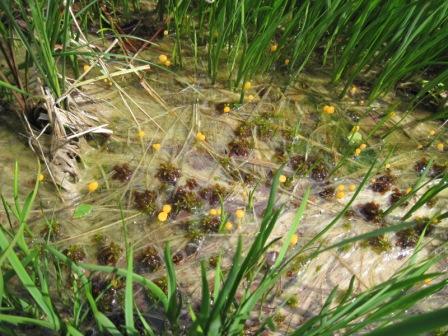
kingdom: Fungi
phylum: Ascomycota
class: Leotiomycetes
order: Helotiales
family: Cenangiaceae
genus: Mitrula
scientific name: Mitrula paludosa
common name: gul nøkketunge
